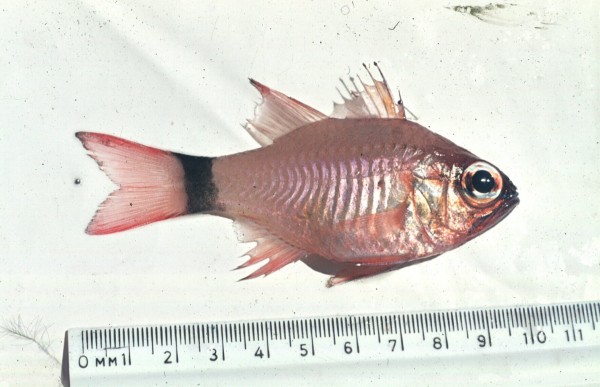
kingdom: Animalia
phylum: Chordata
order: Perciformes
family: Apogonidae
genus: Ostorhinchus
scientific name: Ostorhinchus aureus
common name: Ring-tailed cardinalfish
